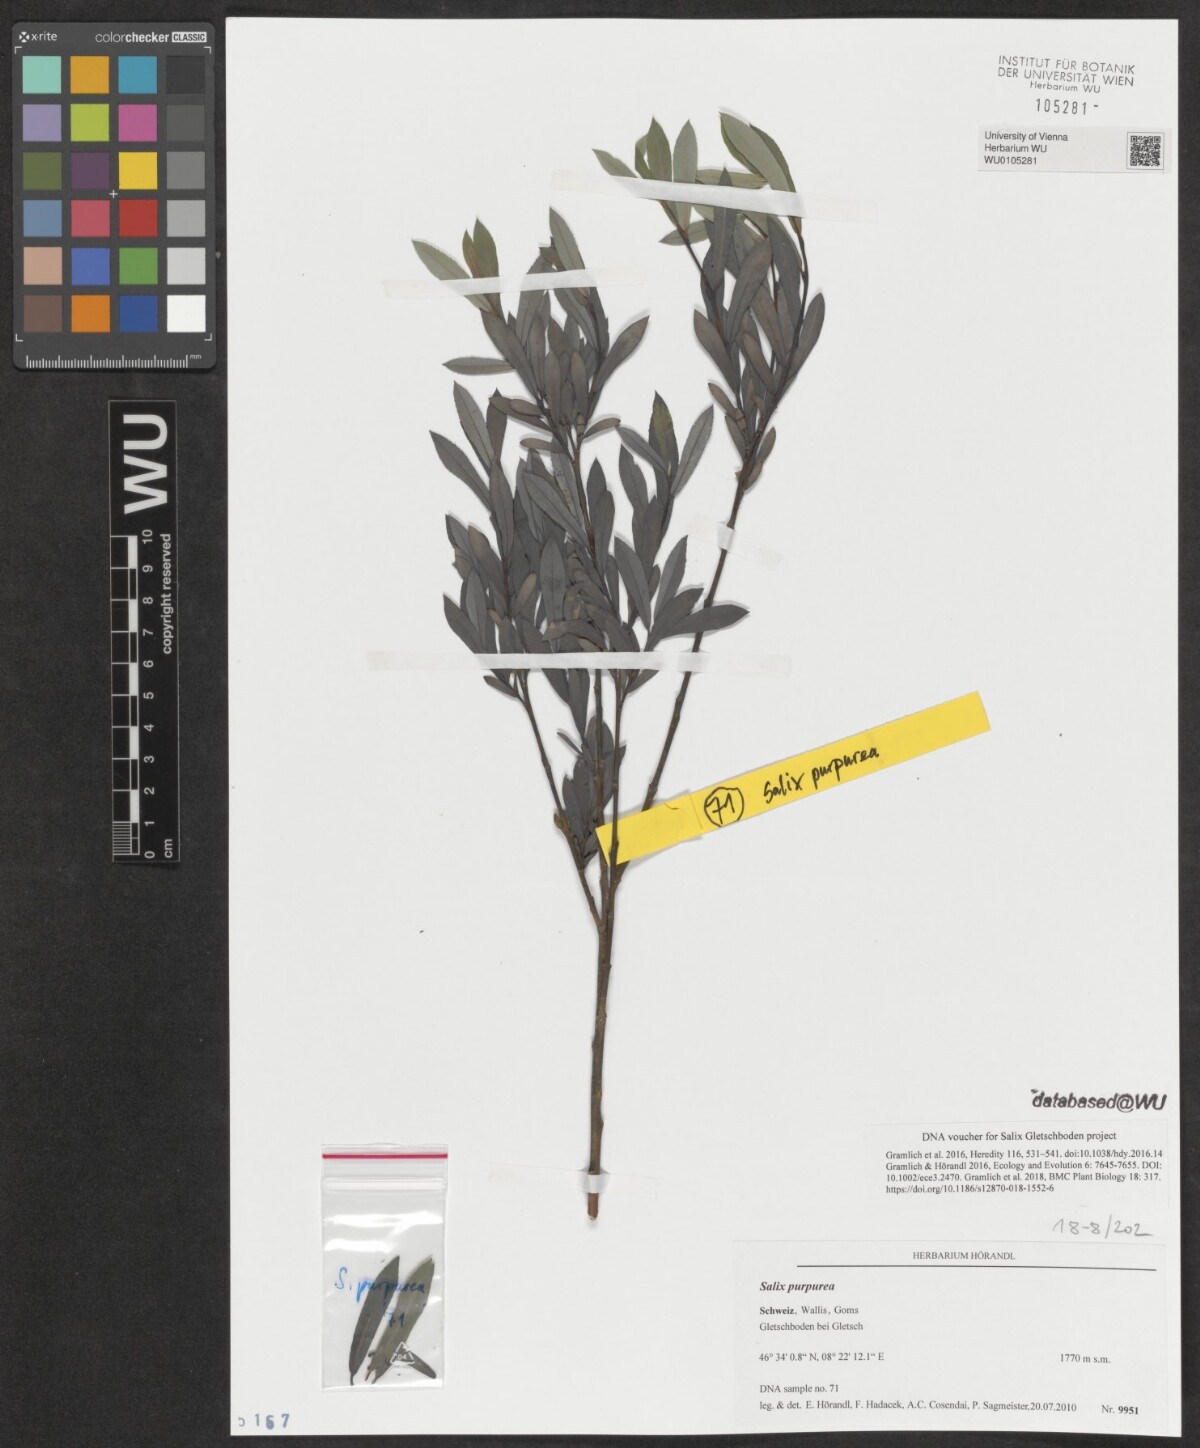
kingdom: Plantae
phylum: Tracheophyta
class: Magnoliopsida
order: Malpighiales
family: Salicaceae
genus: Salix
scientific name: Salix purpurea
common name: Purple willow
